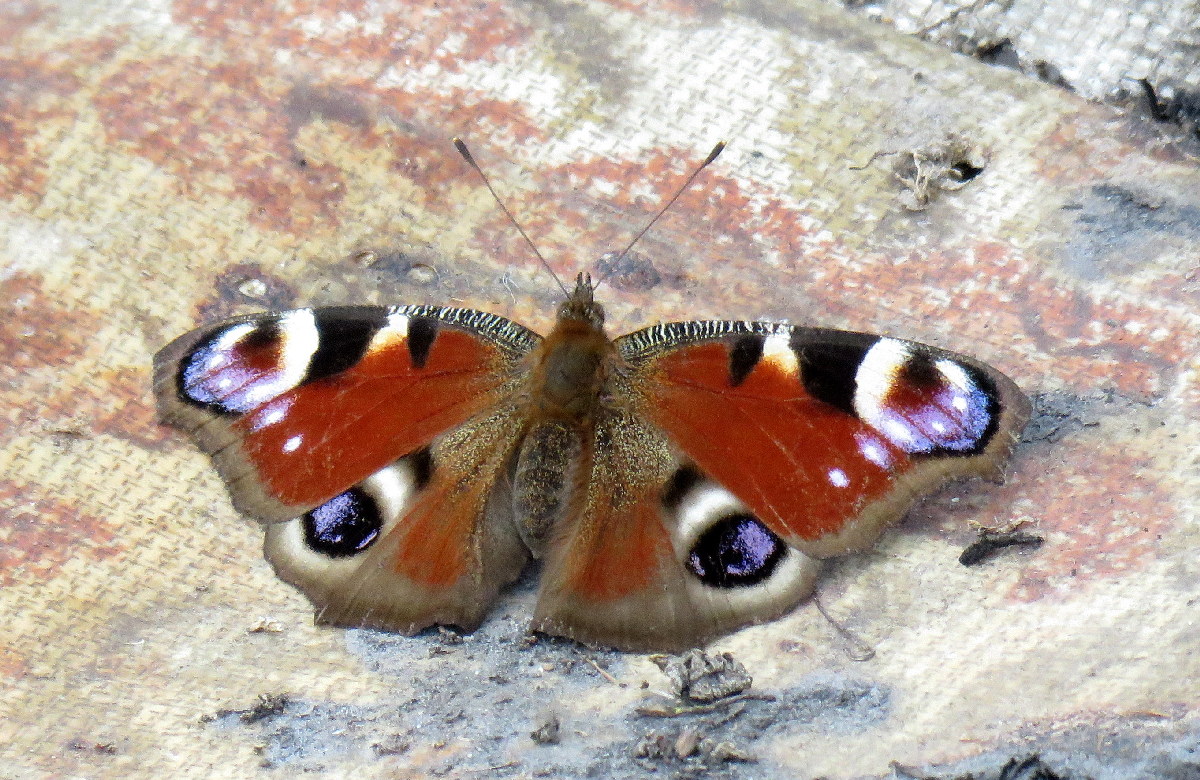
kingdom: Animalia
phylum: Arthropoda
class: Insecta
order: Lepidoptera
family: Nymphalidae
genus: Aglais
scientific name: Aglais io
